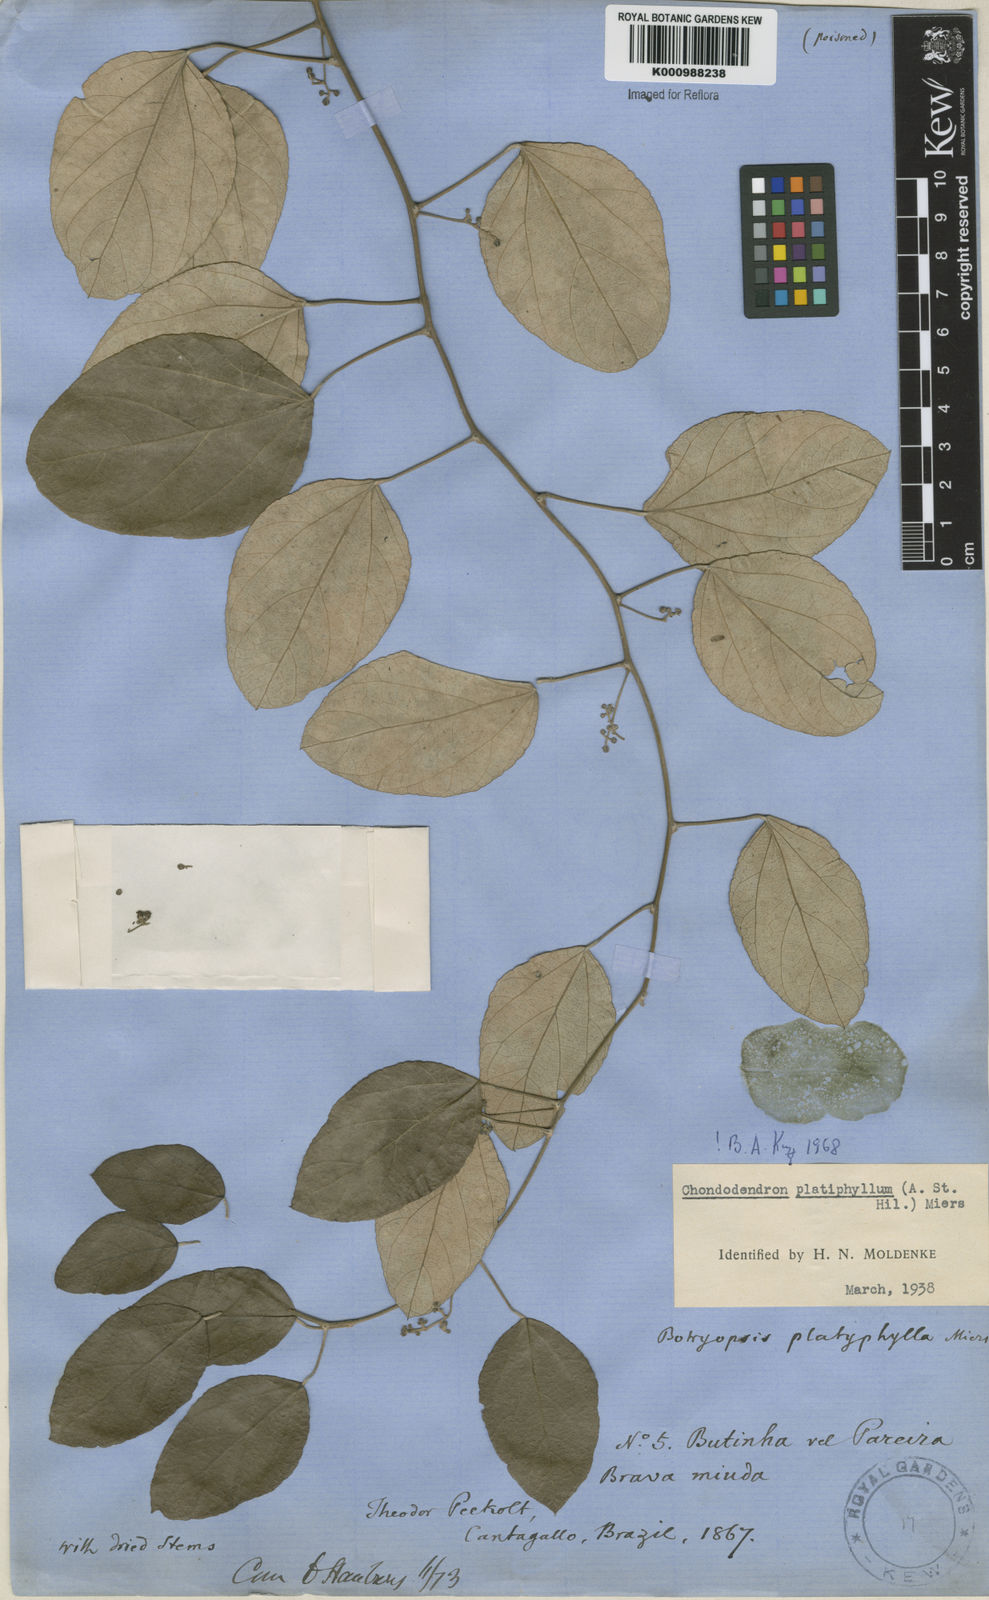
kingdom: Plantae
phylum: Tracheophyta
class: Magnoliopsida
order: Ranunculales
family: Menispermaceae
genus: Chondrodendron
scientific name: Chondrodendron platyphyllum
